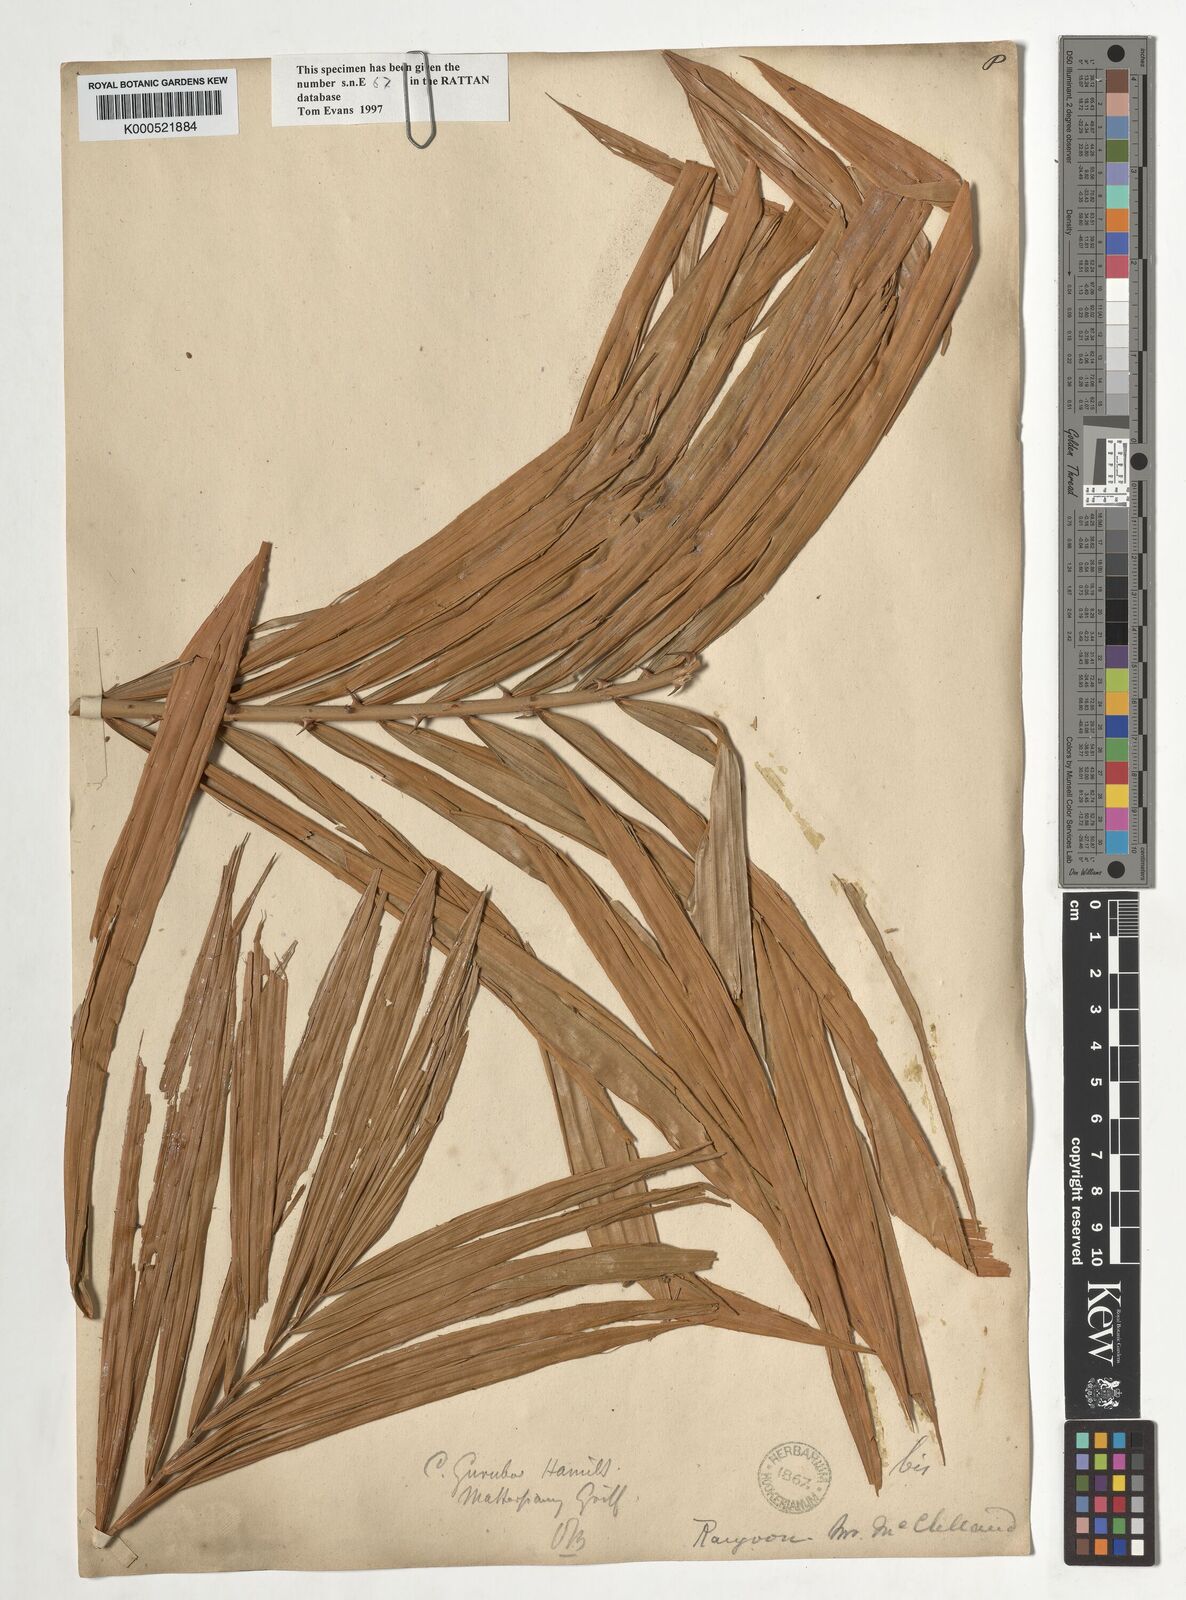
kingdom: Plantae
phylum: Tracheophyta
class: Liliopsida
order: Arecales
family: Arecaceae
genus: Calamus
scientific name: Calamus
